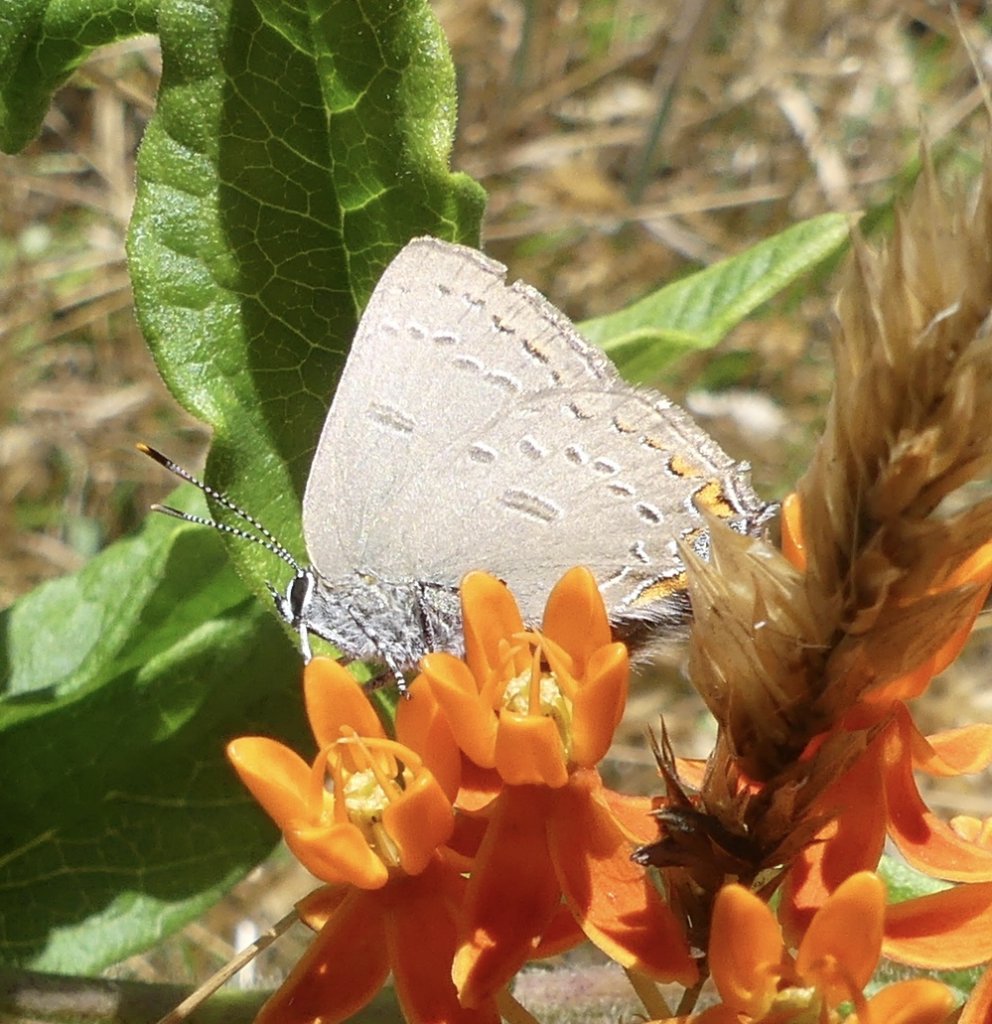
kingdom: Animalia
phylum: Arthropoda
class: Insecta
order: Lepidoptera
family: Lycaenidae
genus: Satyrium
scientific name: Satyrium edwardsii
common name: Edwards' Hairstreak
